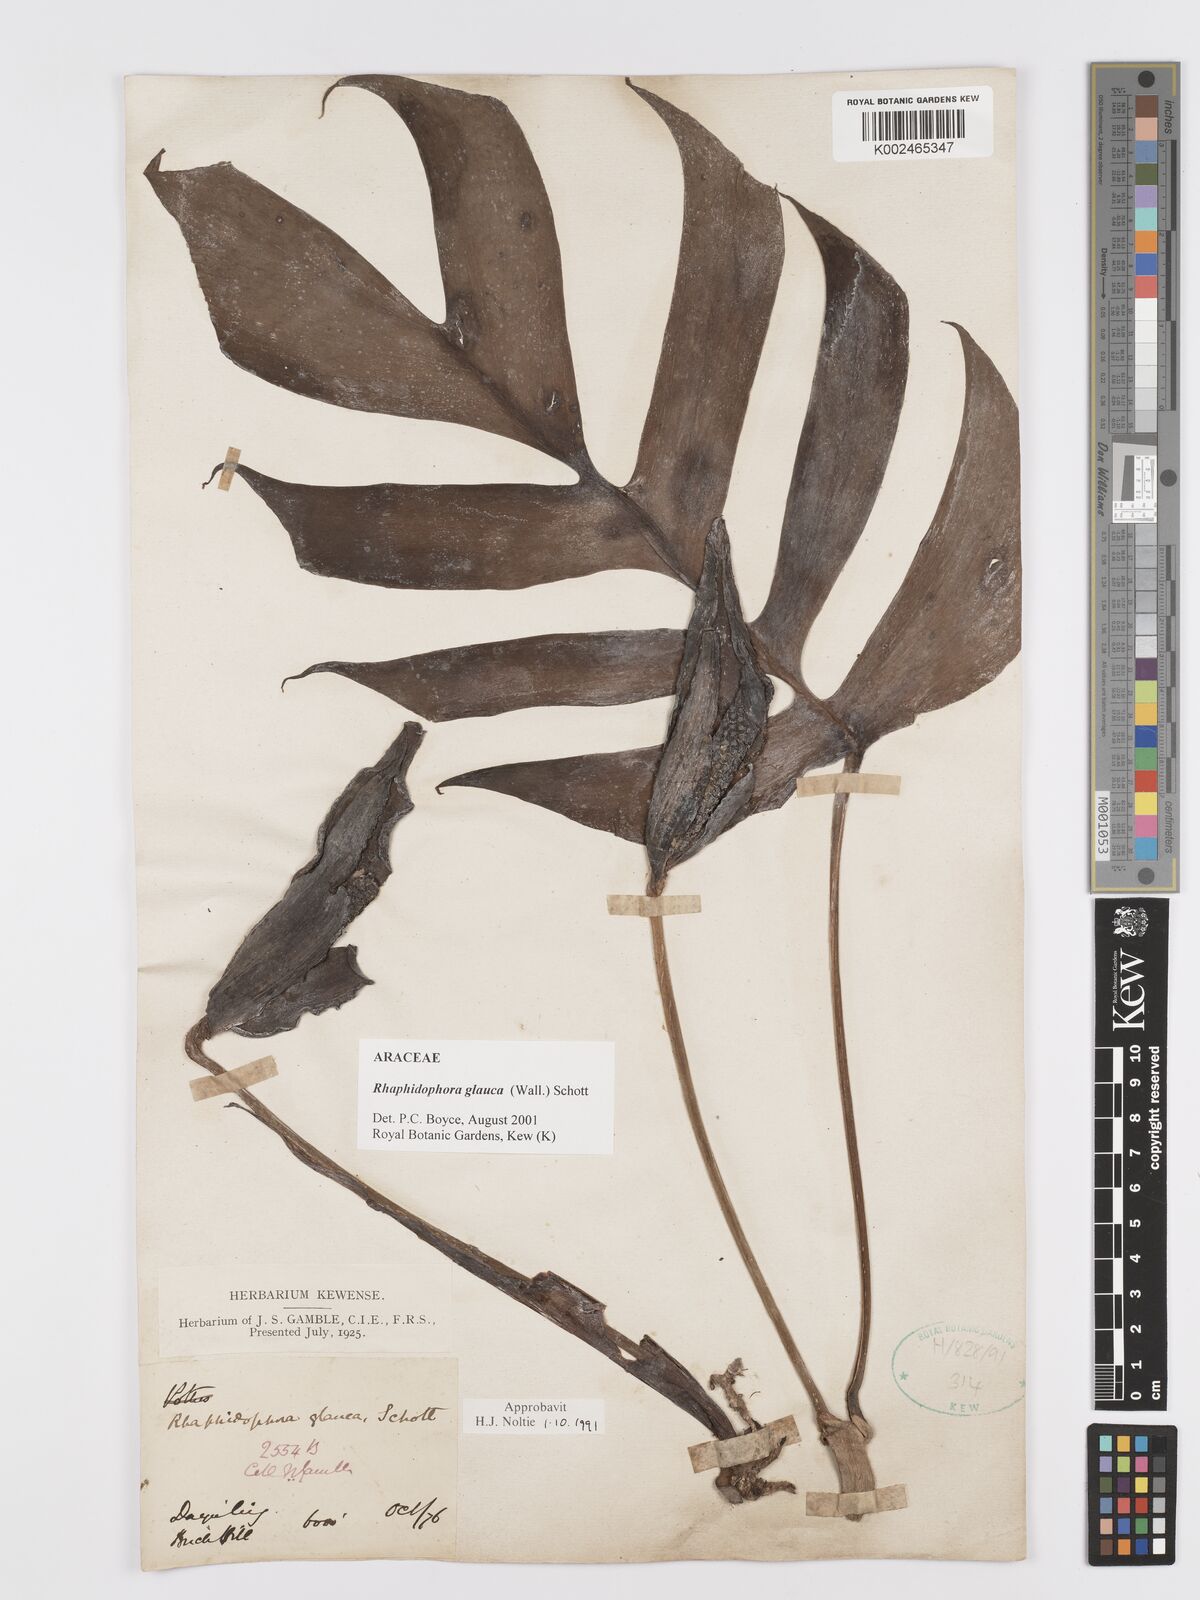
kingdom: Plantae
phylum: Tracheophyta
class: Liliopsida
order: Alismatales
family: Araceae
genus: Rhaphidophora
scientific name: Rhaphidophora glauca
